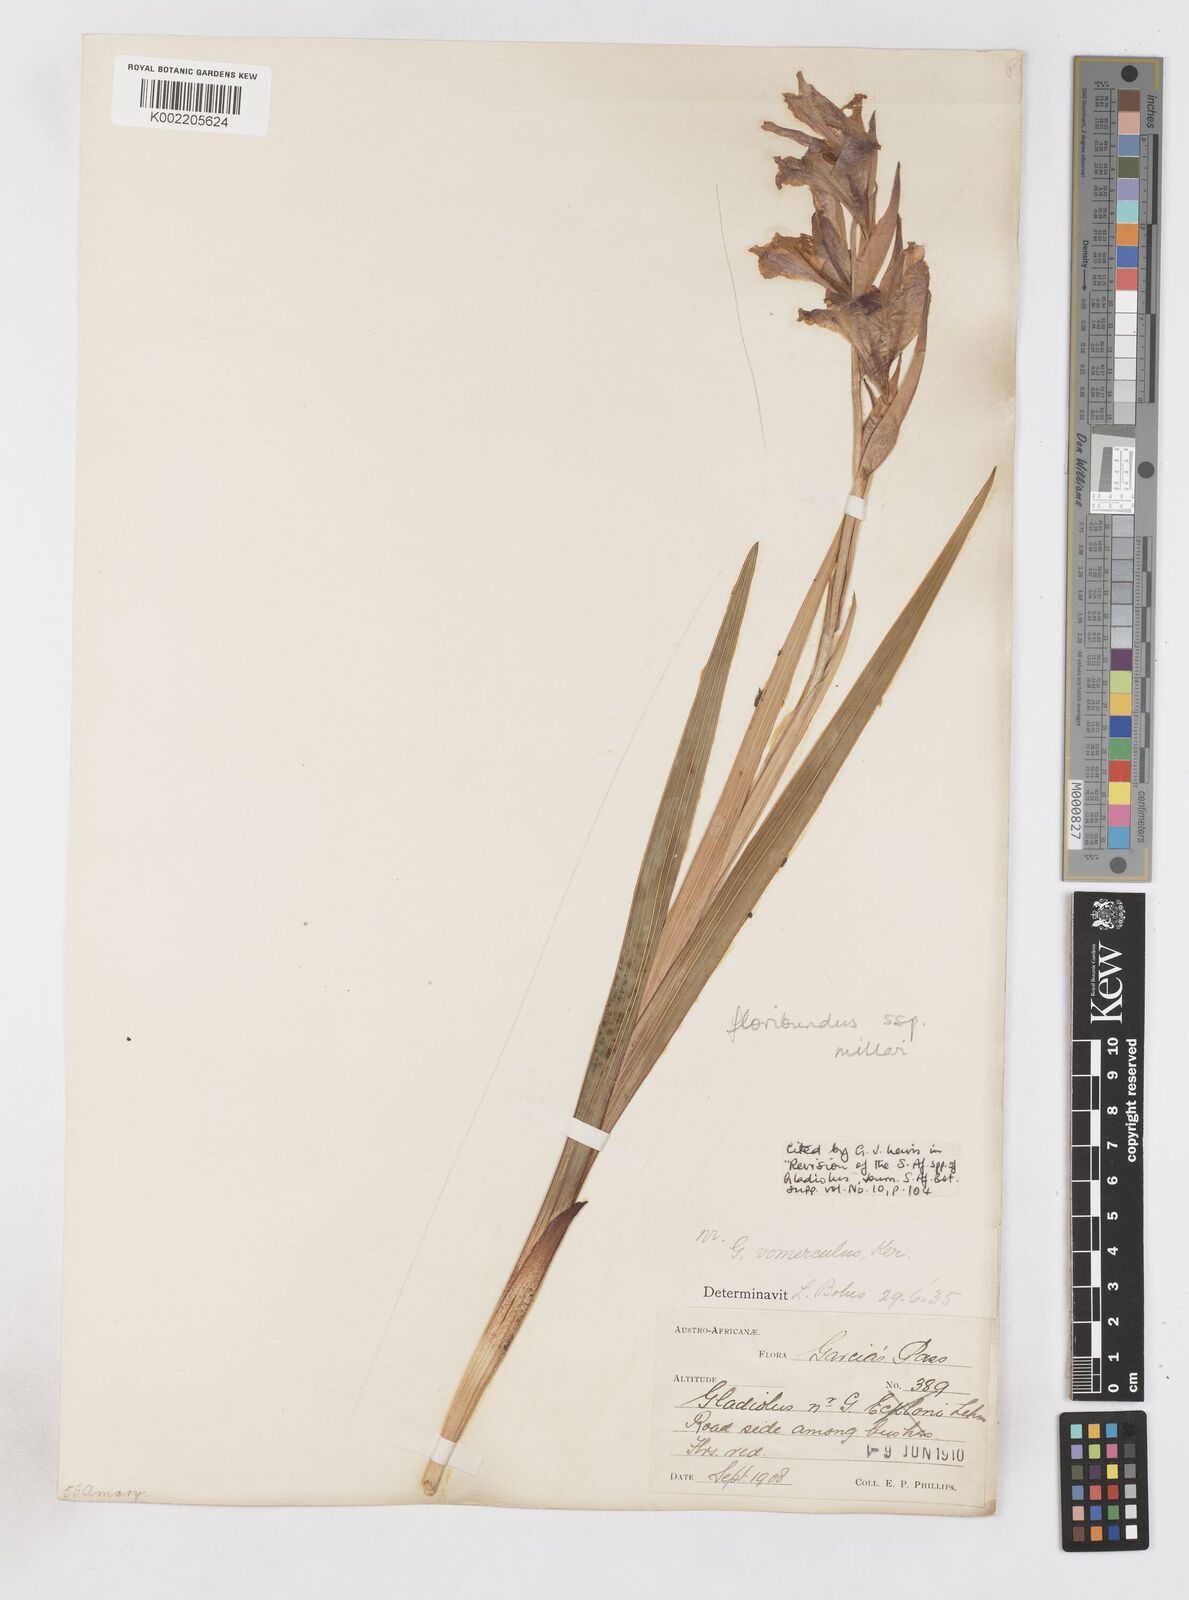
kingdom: Plantae
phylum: Tracheophyta
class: Liliopsida
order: Asparagales
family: Iridaceae
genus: Gladiolus
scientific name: Gladiolus grandiflorus
